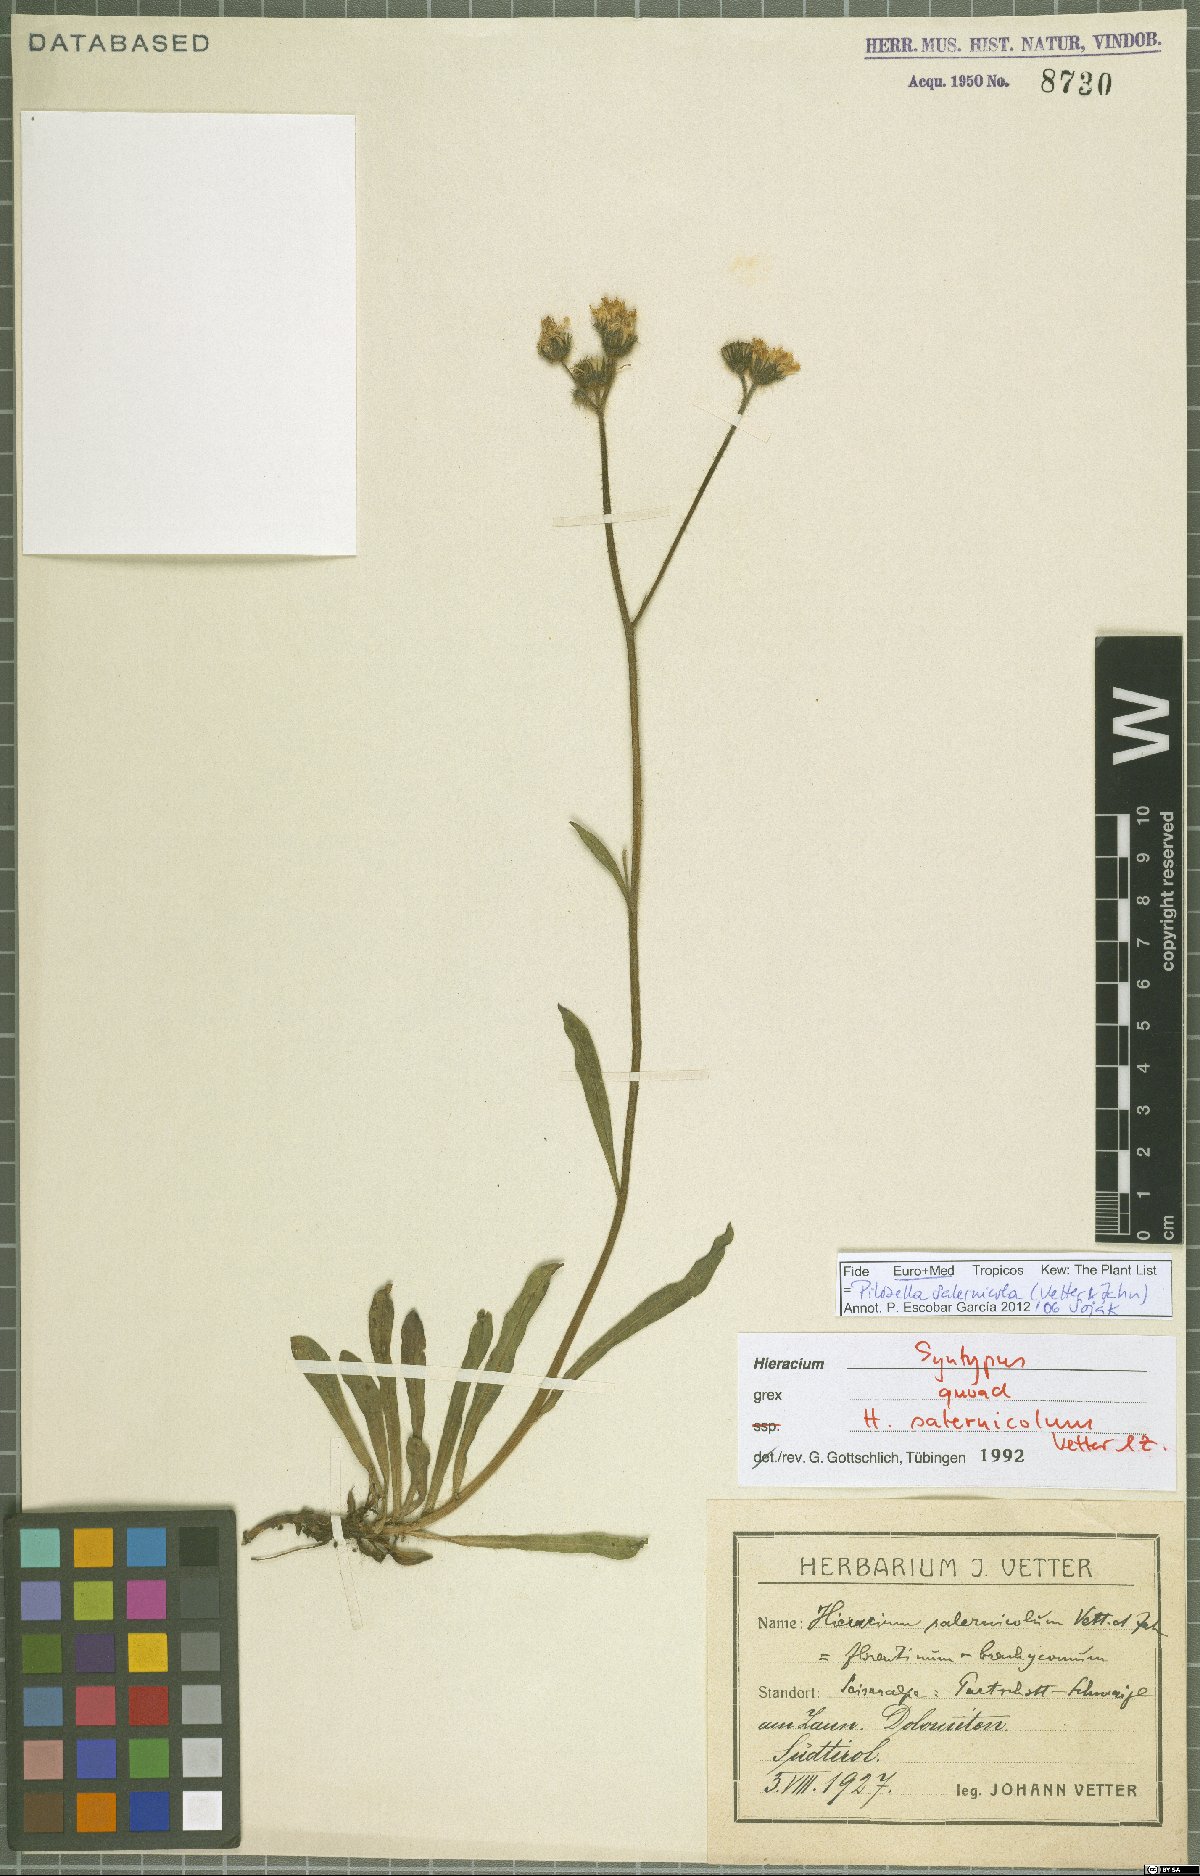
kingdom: Plantae
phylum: Tracheophyta
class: Magnoliopsida
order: Asterales
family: Asteraceae
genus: Pilosella
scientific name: Pilosella salernicola
